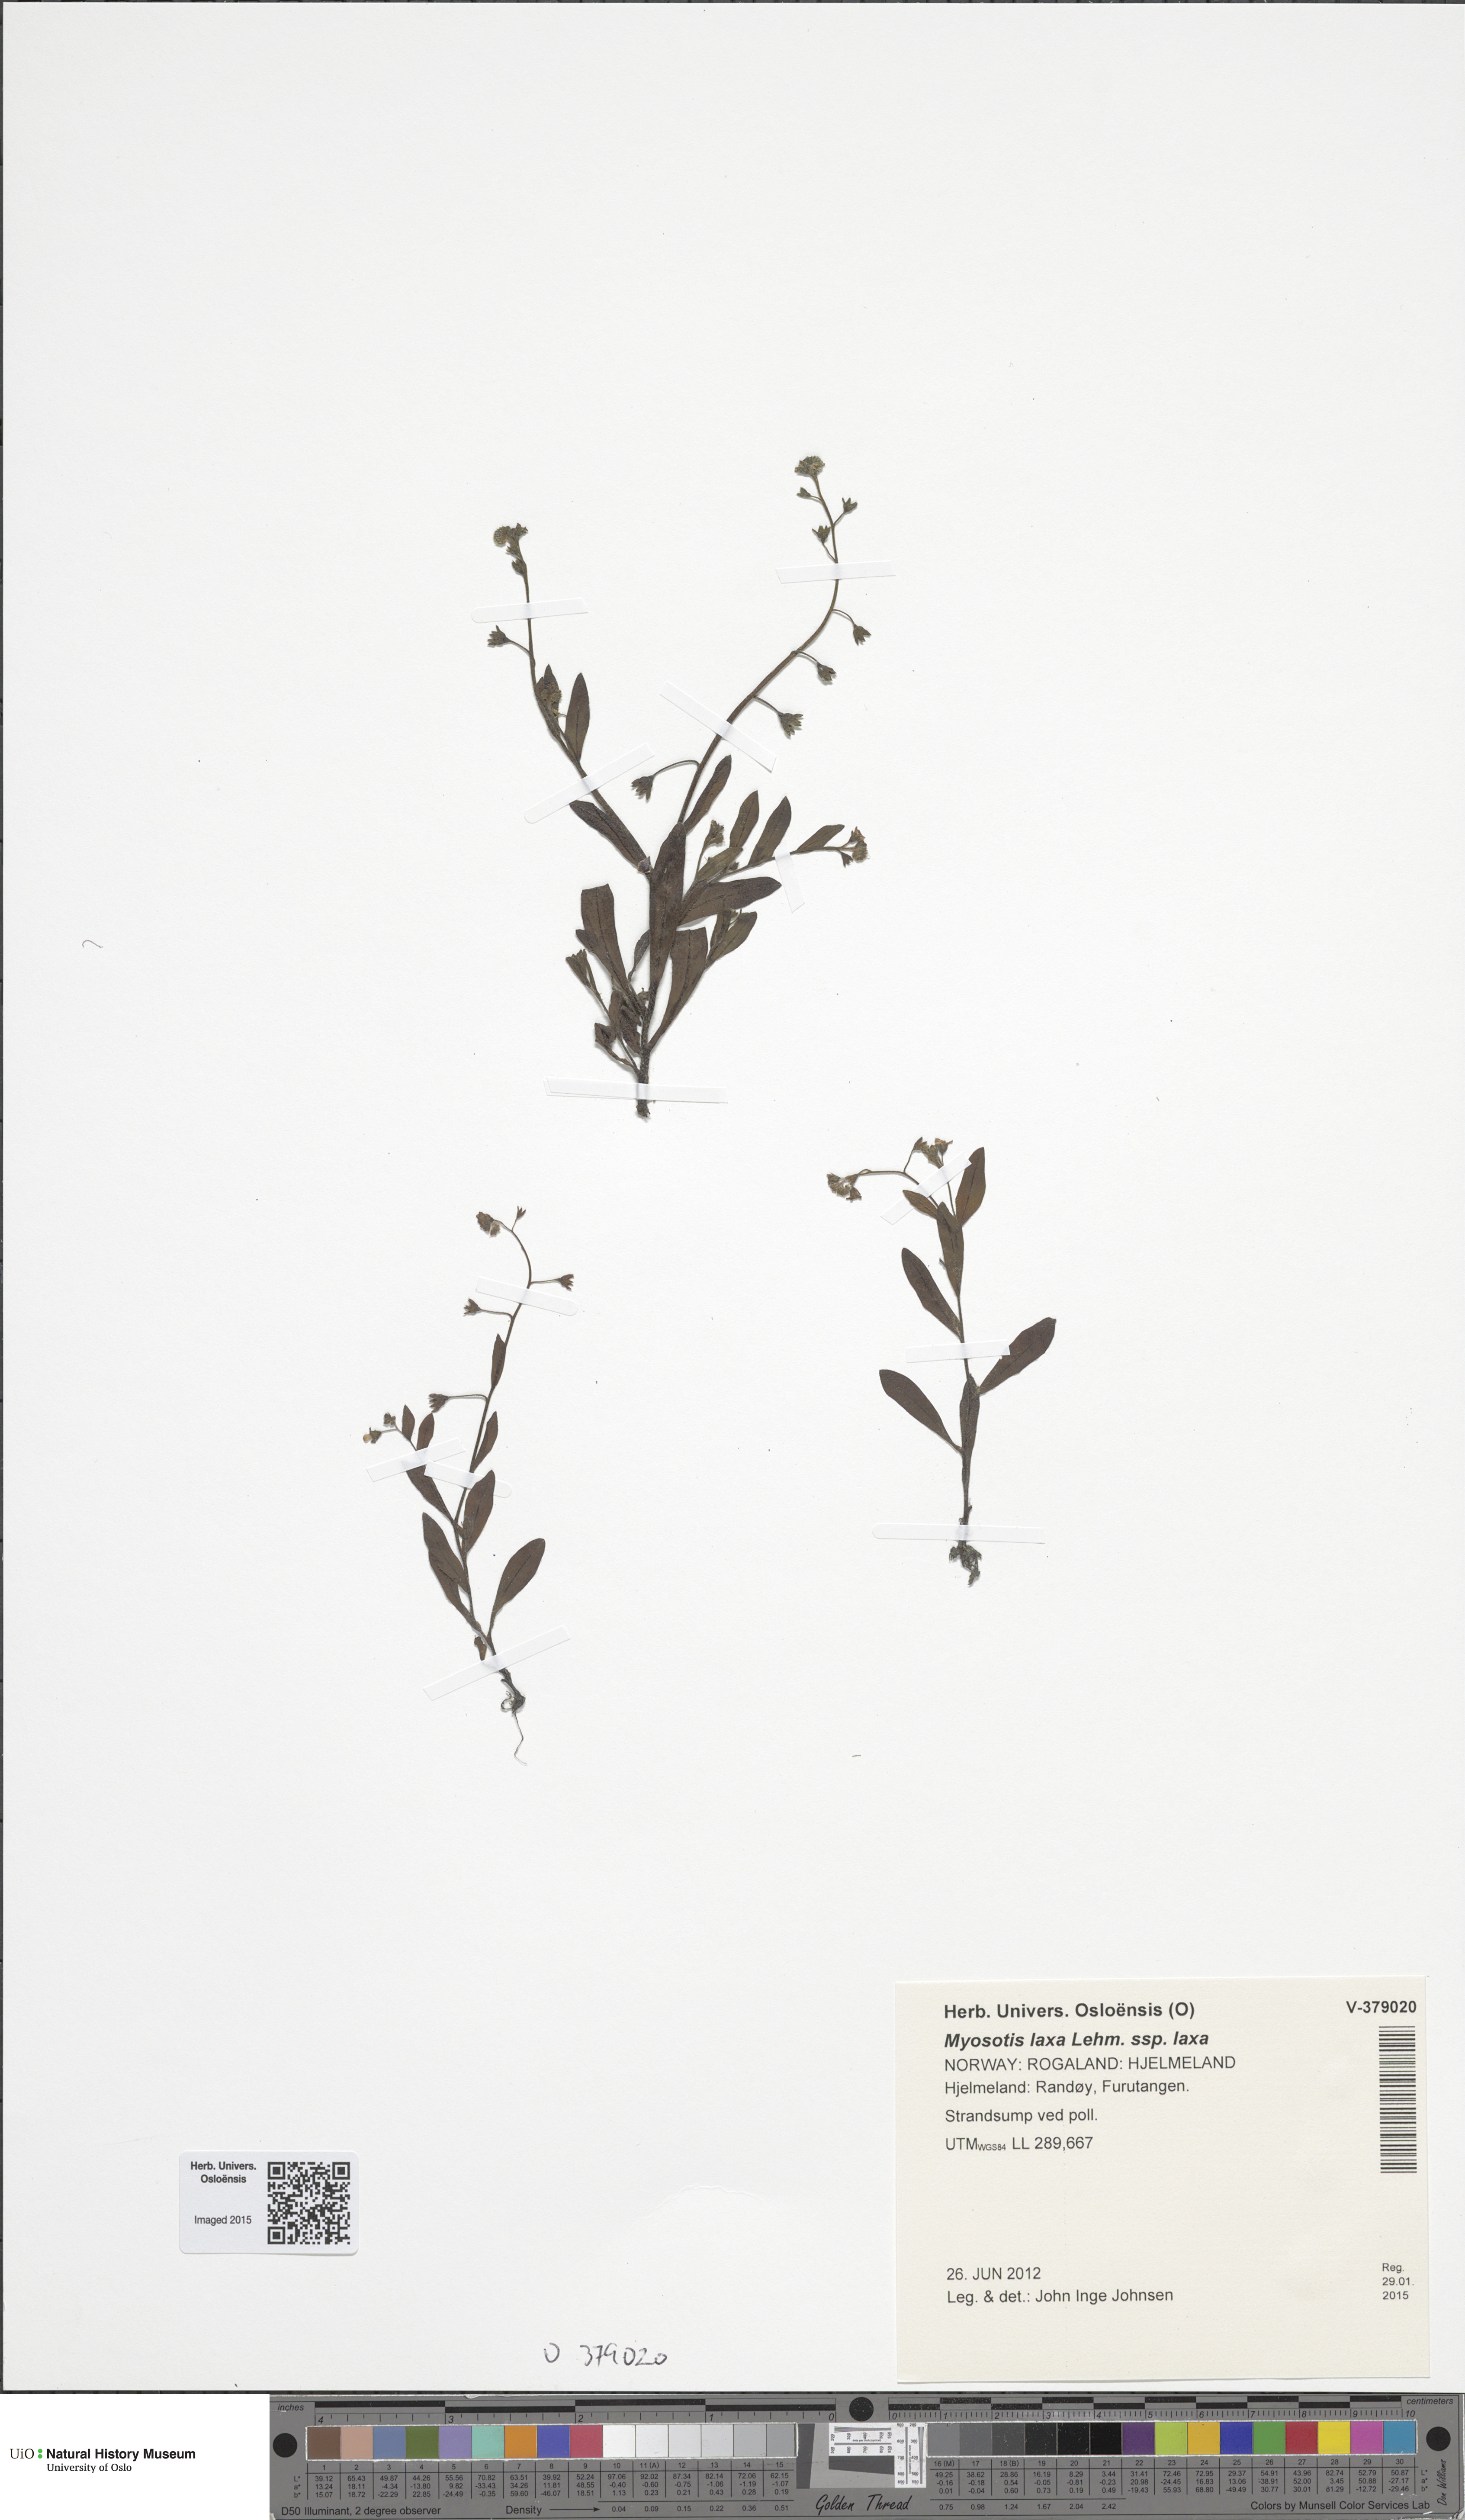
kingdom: Plantae
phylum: Tracheophyta
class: Magnoliopsida
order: Boraginales
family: Boraginaceae
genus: Myosotis
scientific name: Myosotis laxa
